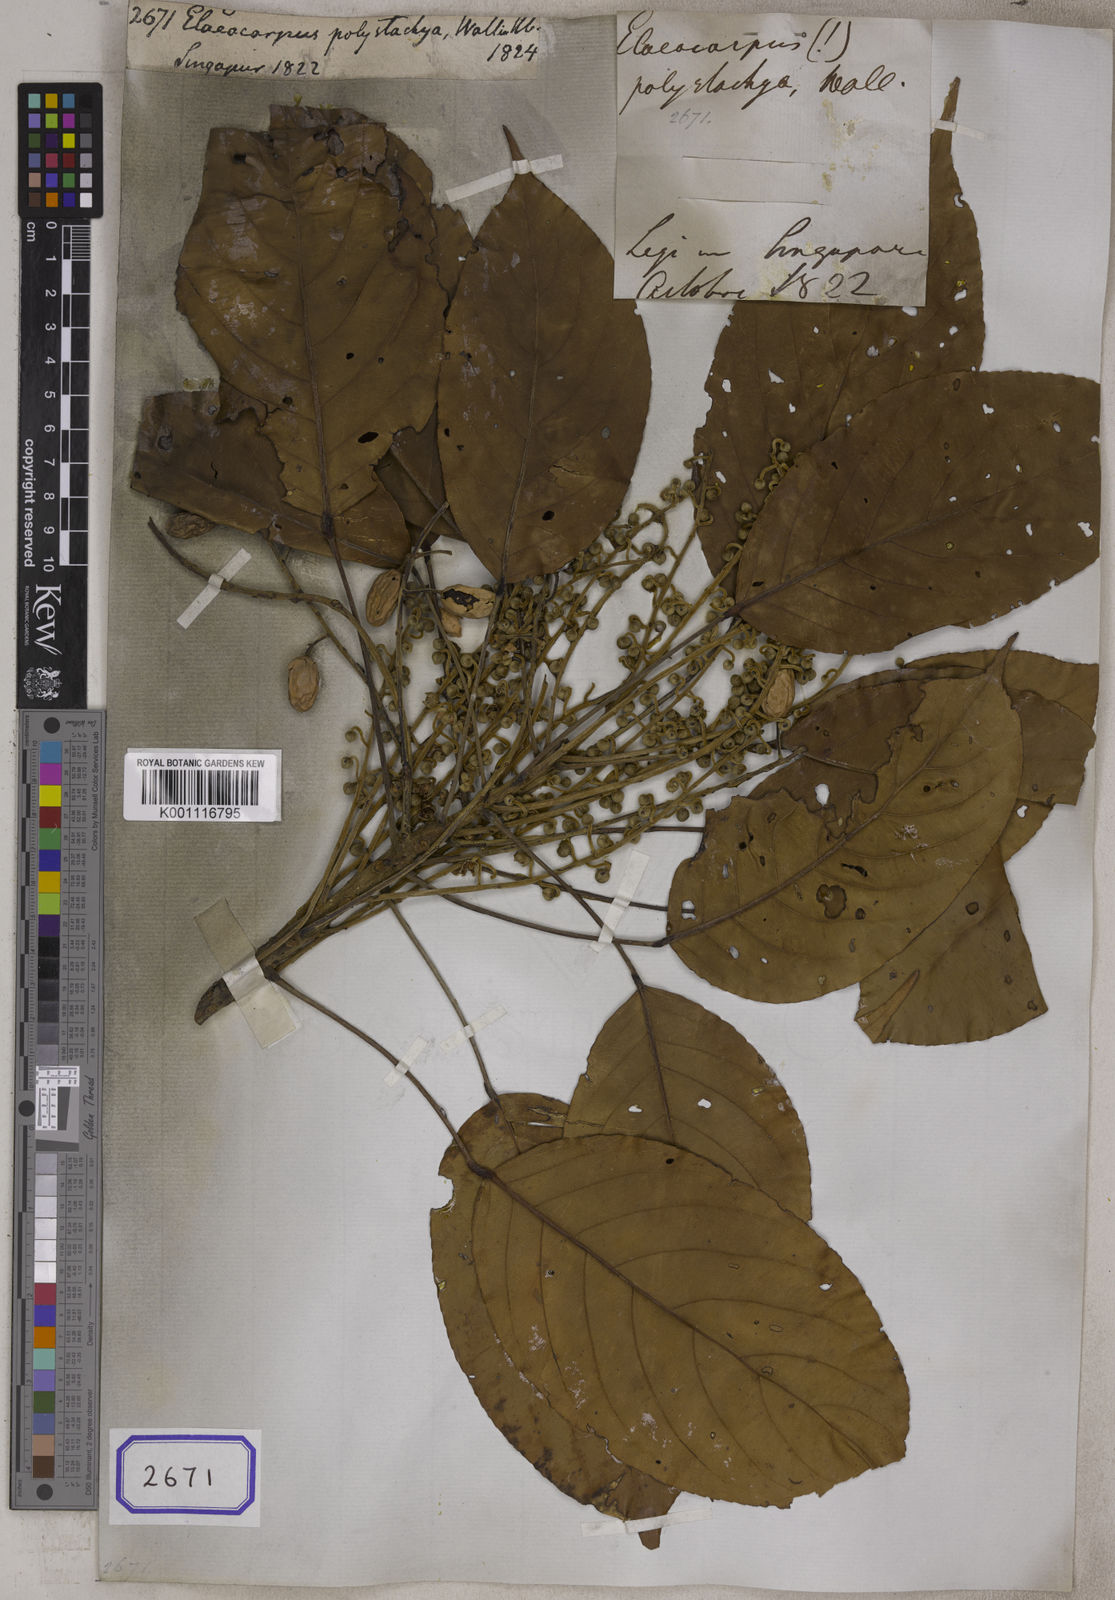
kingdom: Plantae
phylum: Tracheophyta
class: Magnoliopsida
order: Oxalidales
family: Elaeocarpaceae
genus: Elaeocarpus
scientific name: Elaeocarpus
